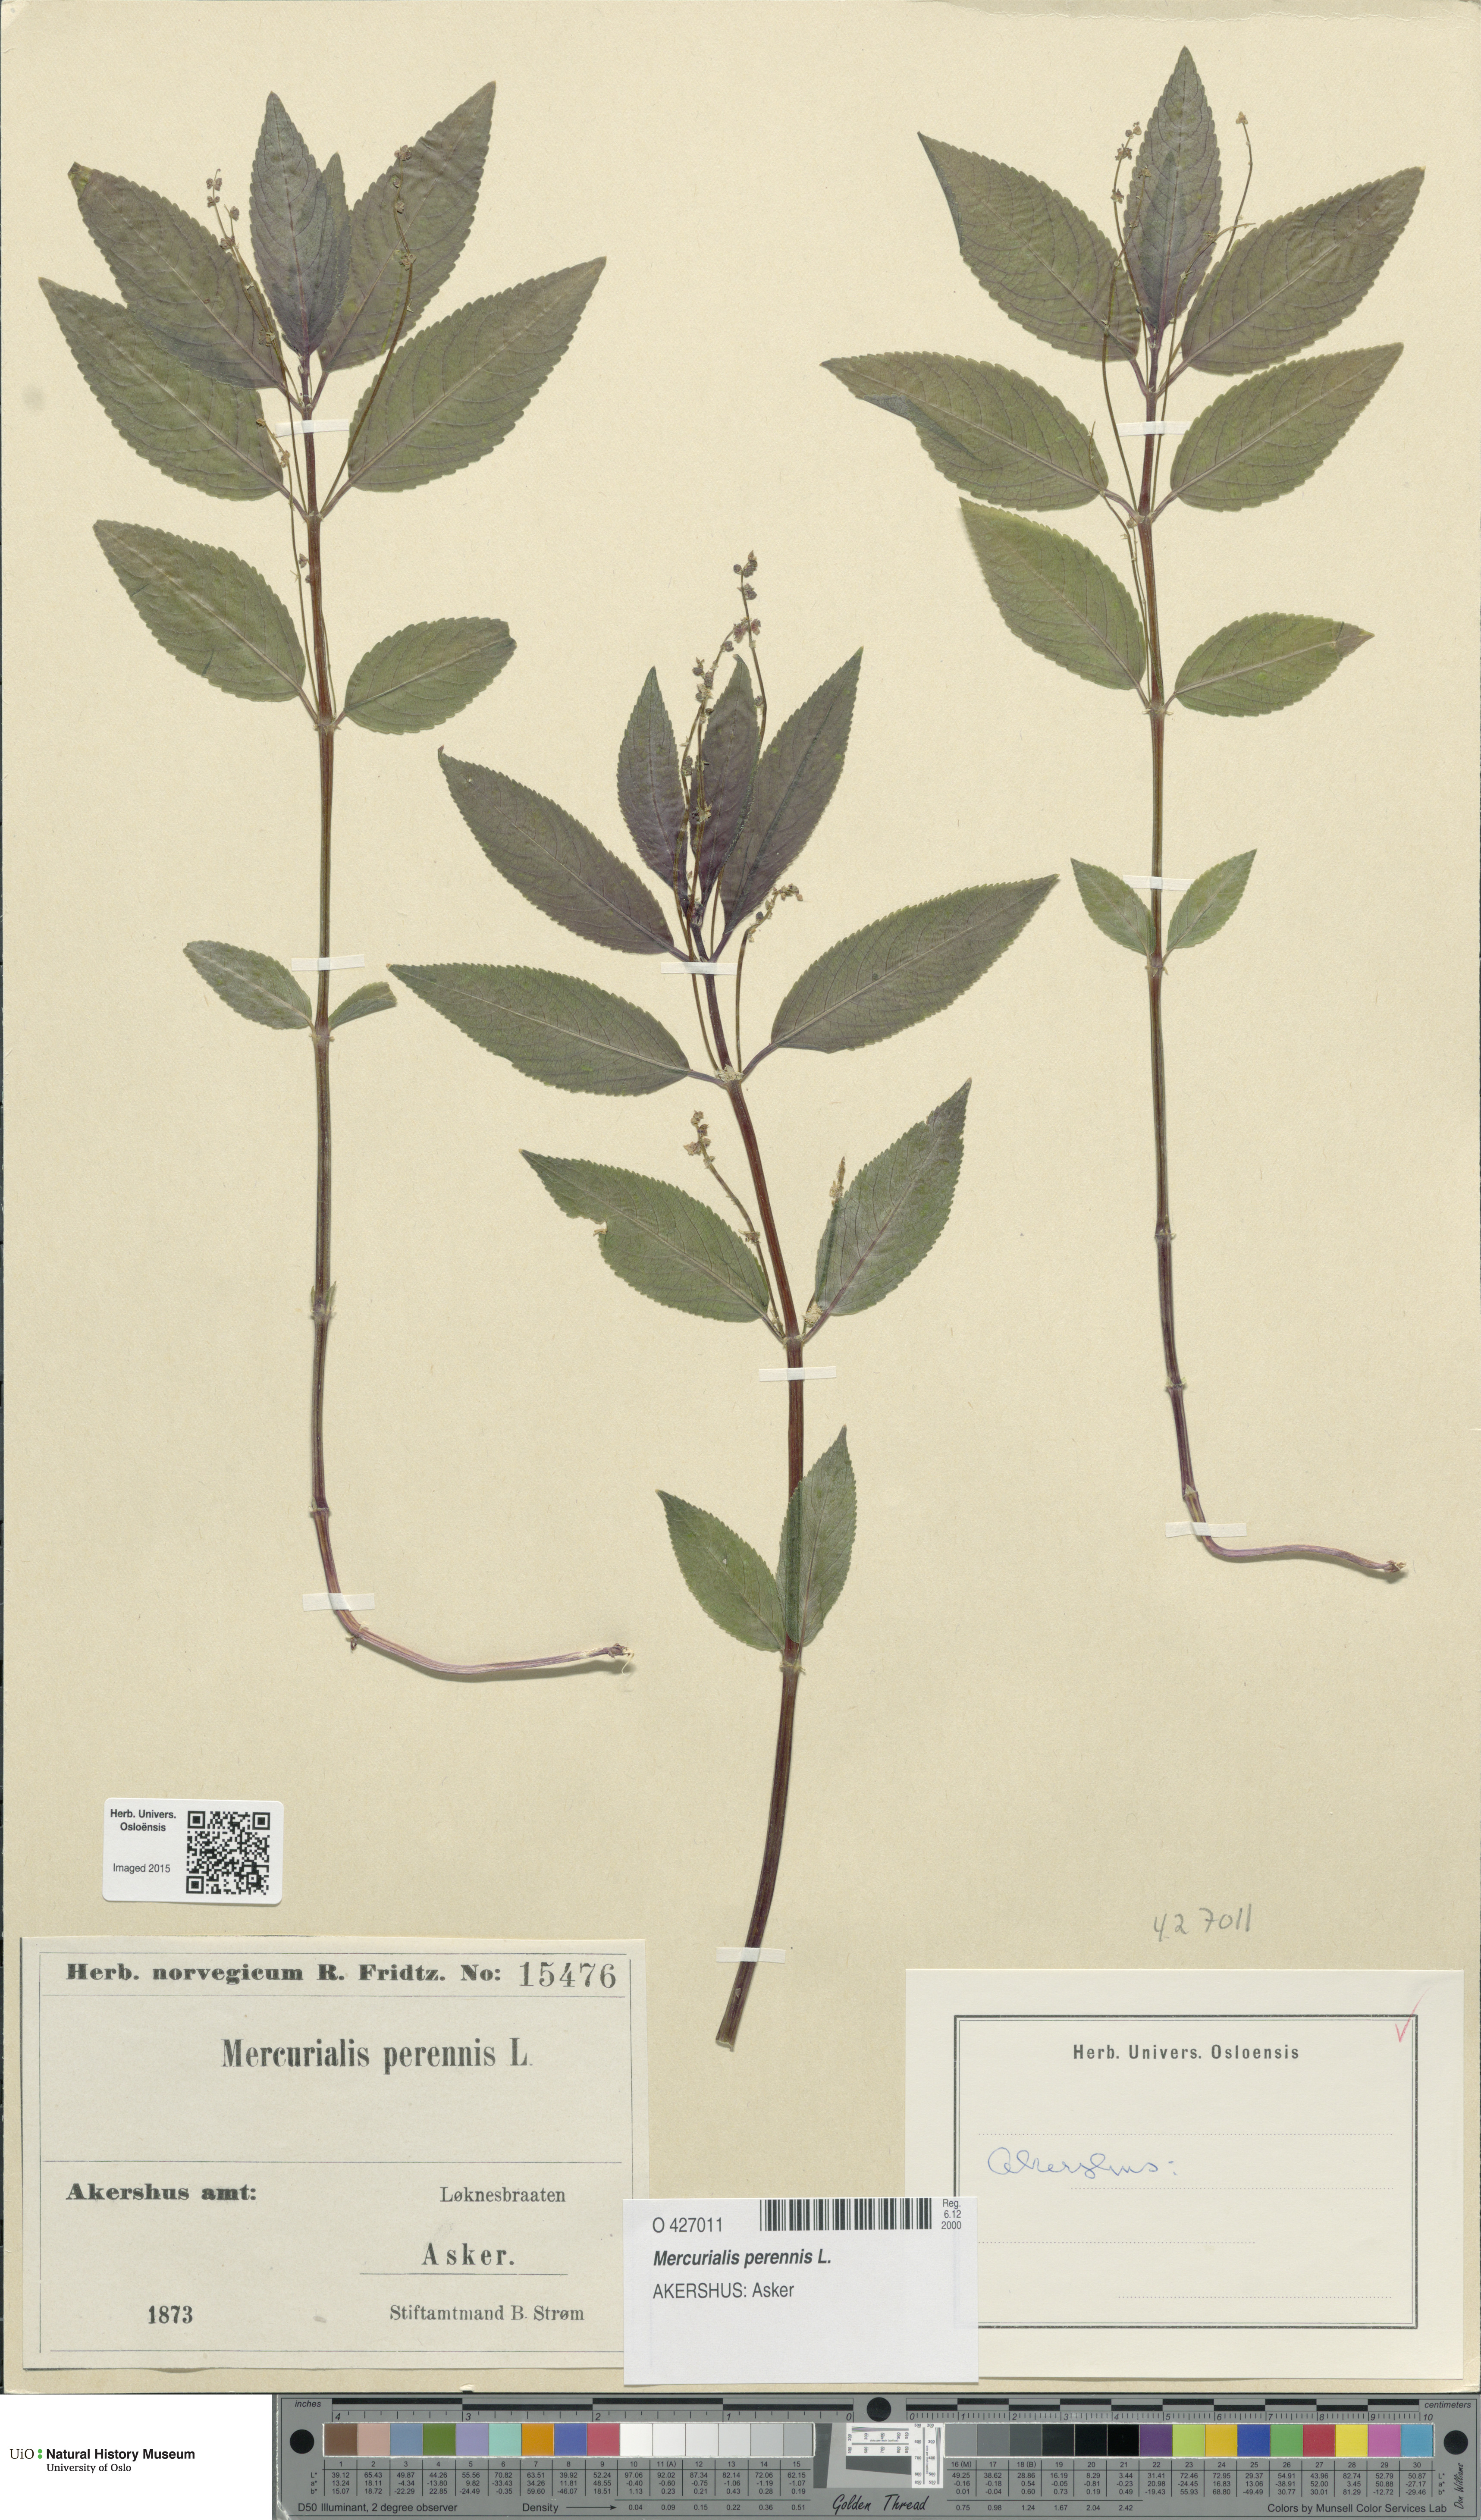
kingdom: Plantae
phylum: Tracheophyta
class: Magnoliopsida
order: Malpighiales
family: Euphorbiaceae
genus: Mercurialis
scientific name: Mercurialis perennis
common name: Dog mercury
